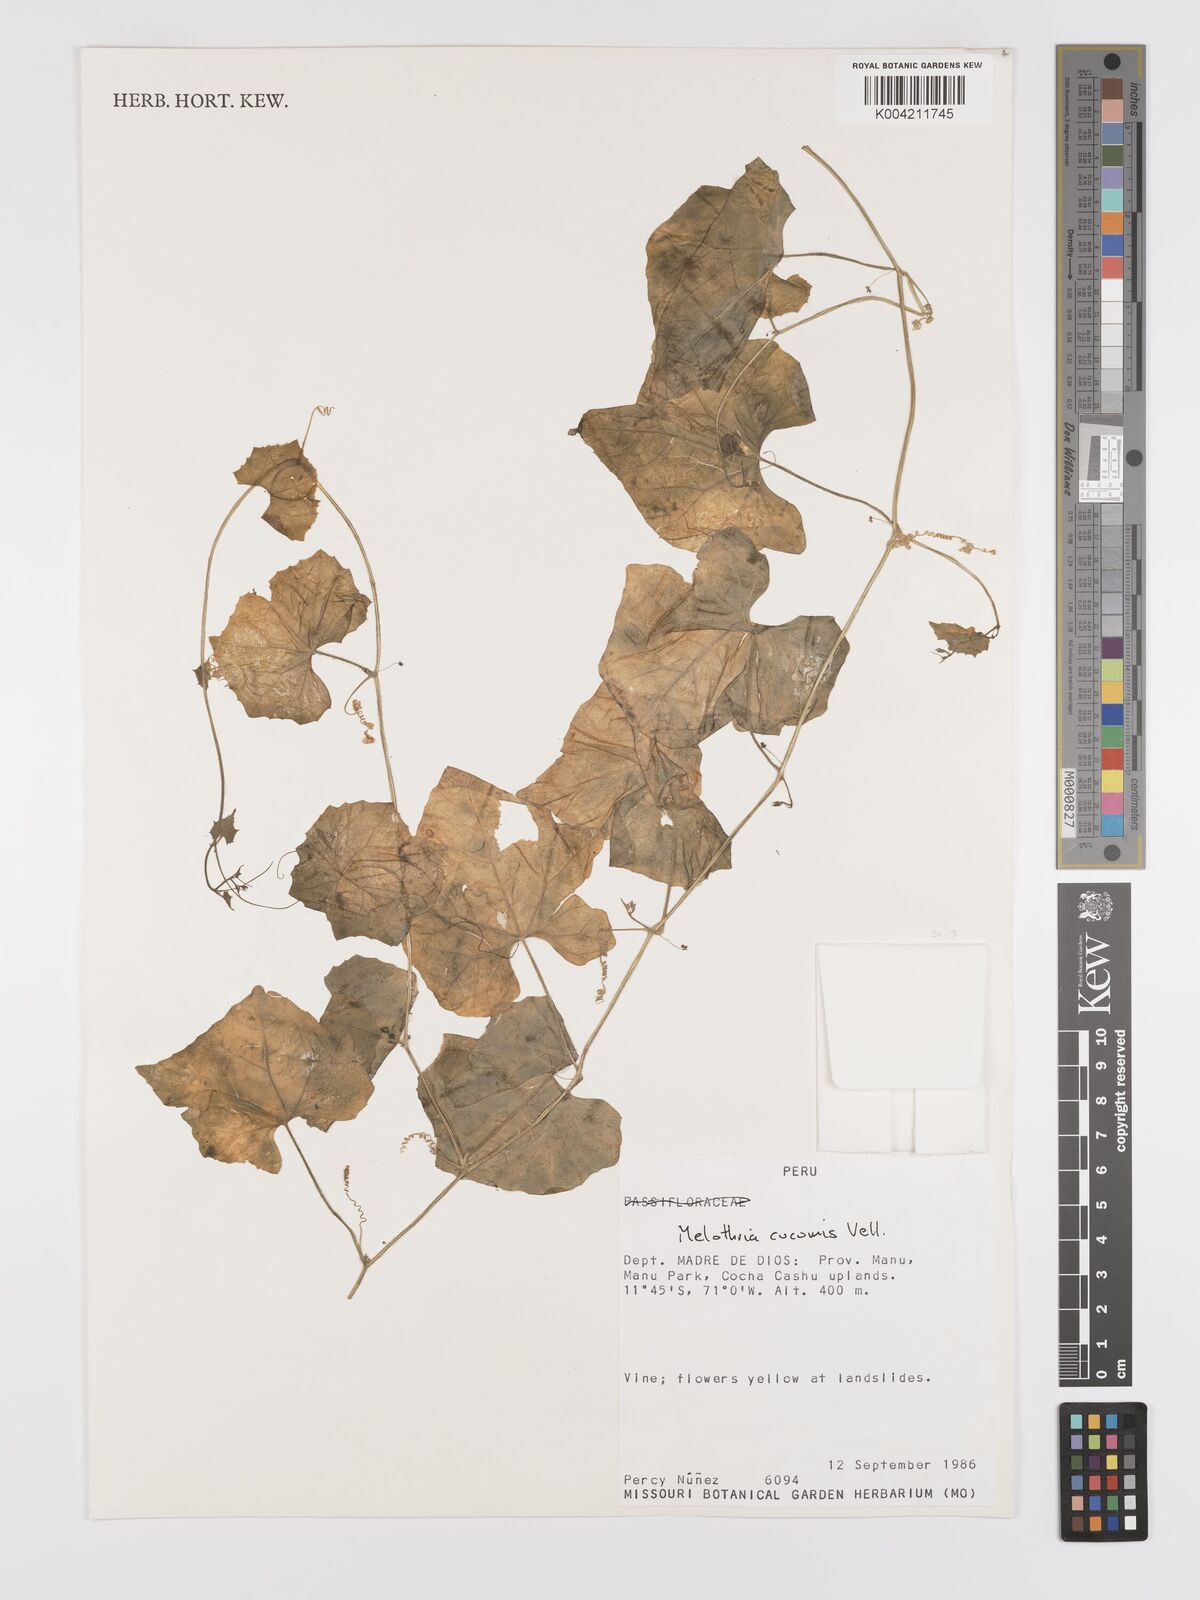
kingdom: Plantae
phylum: Tracheophyta
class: Magnoliopsida
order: Cucurbitales
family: Cucurbitaceae
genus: Melothria
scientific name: Melothria cucumis
